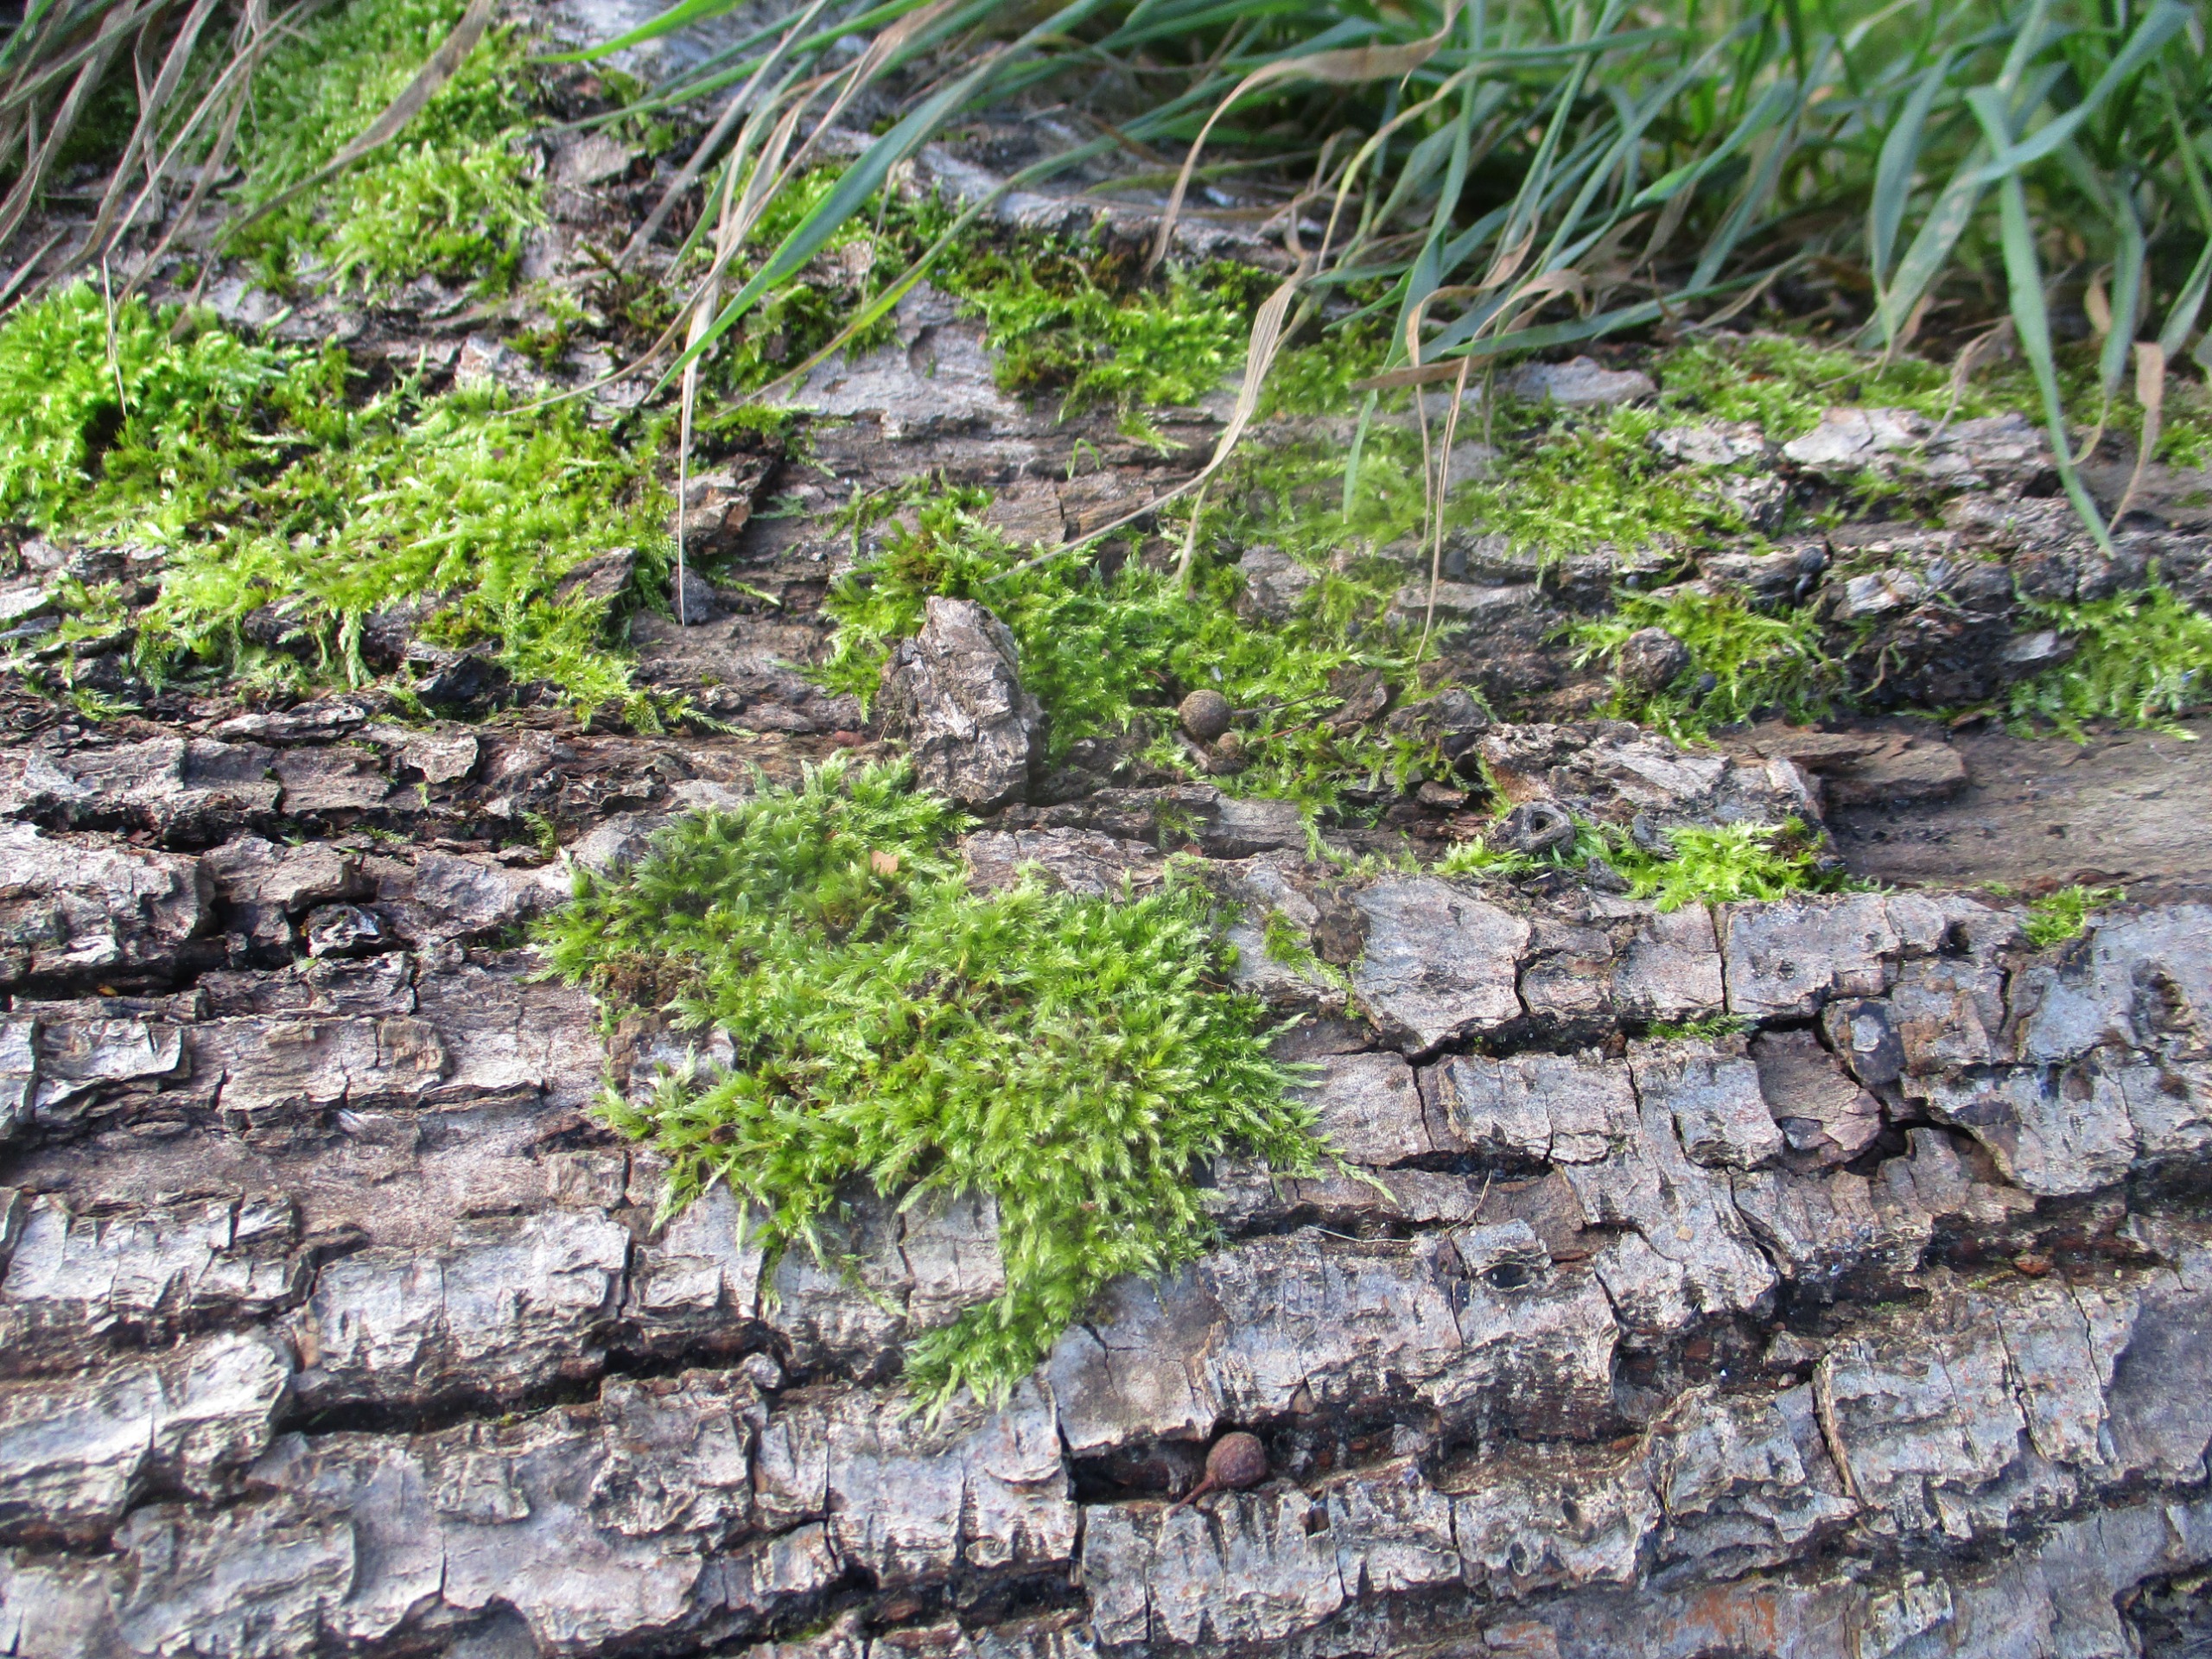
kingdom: Plantae
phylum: Bryophyta
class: Bryopsida
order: Hypnales
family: Hypnaceae
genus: Hypnum
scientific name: Hypnum cupressiforme
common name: Almindelig cypresmos
